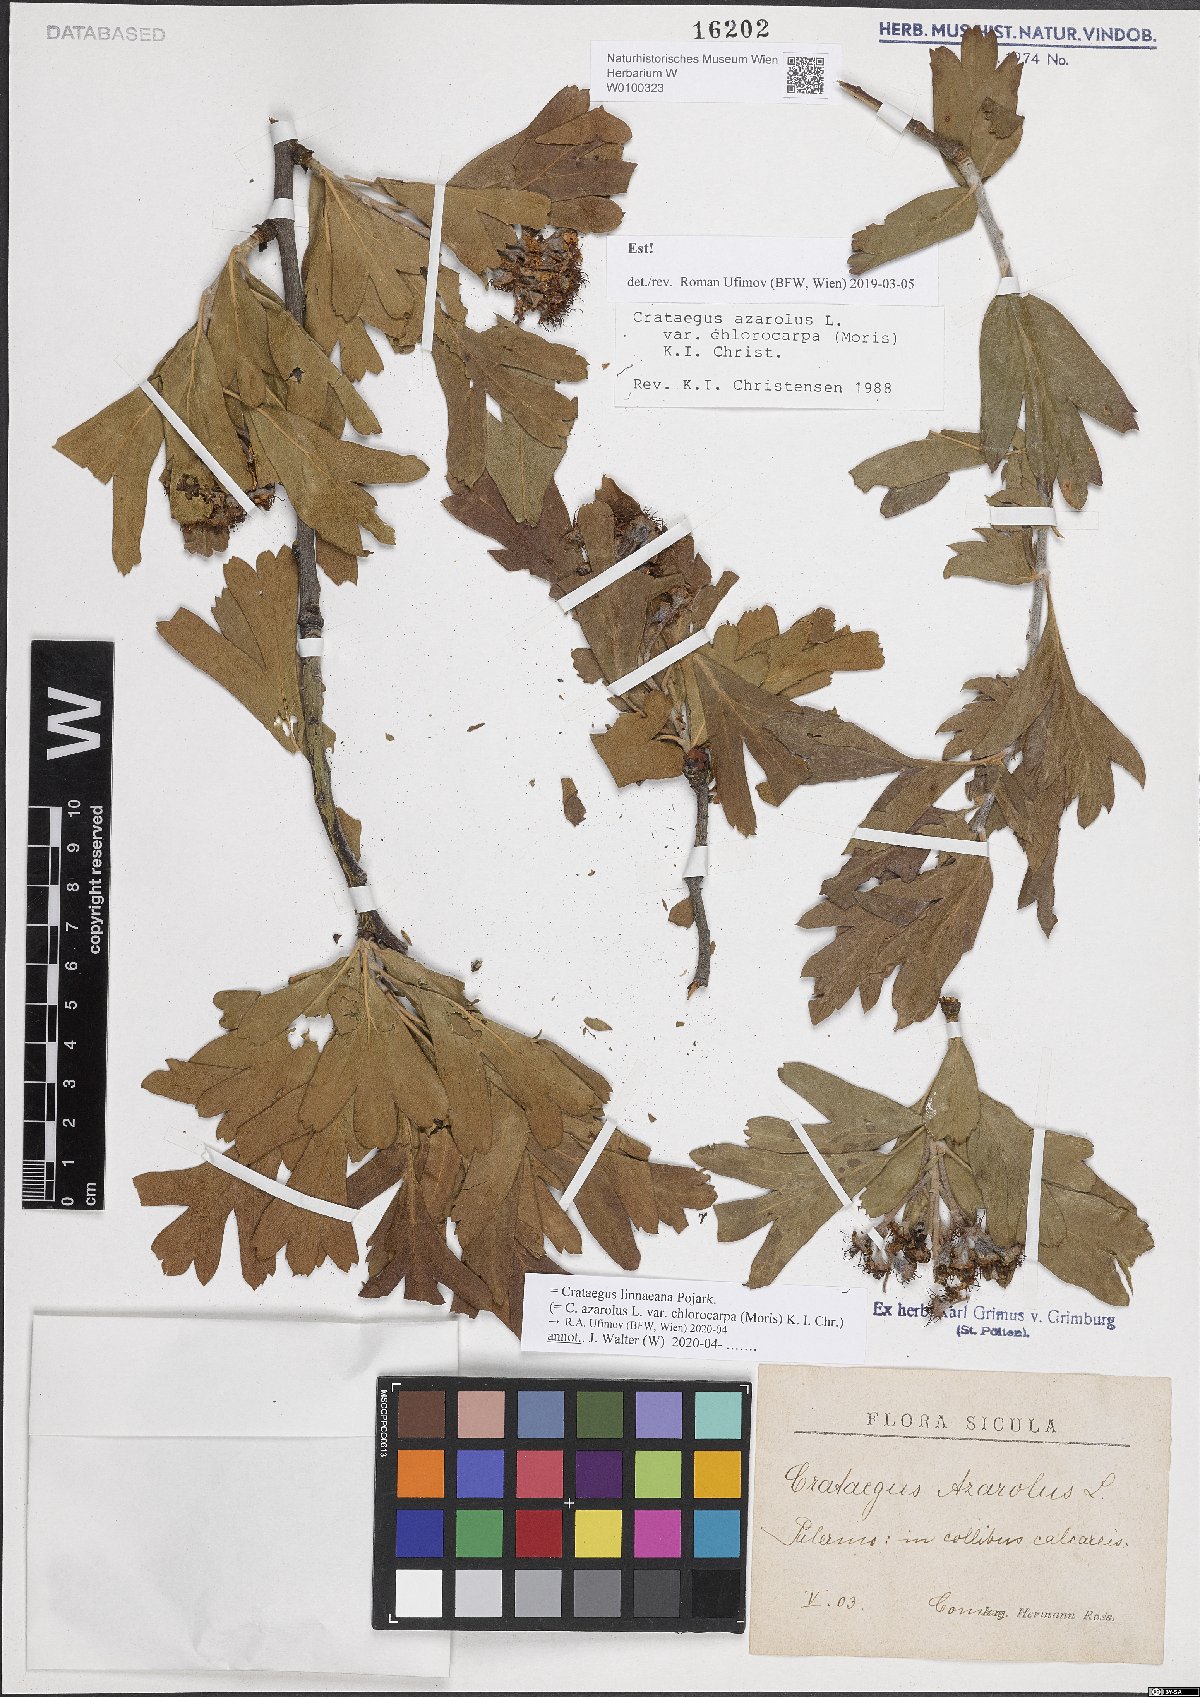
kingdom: Plantae
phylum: Tracheophyta
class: Magnoliopsida
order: Rosales
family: Rosaceae
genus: Crataegus
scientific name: Crataegus azarolus
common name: Azarole
